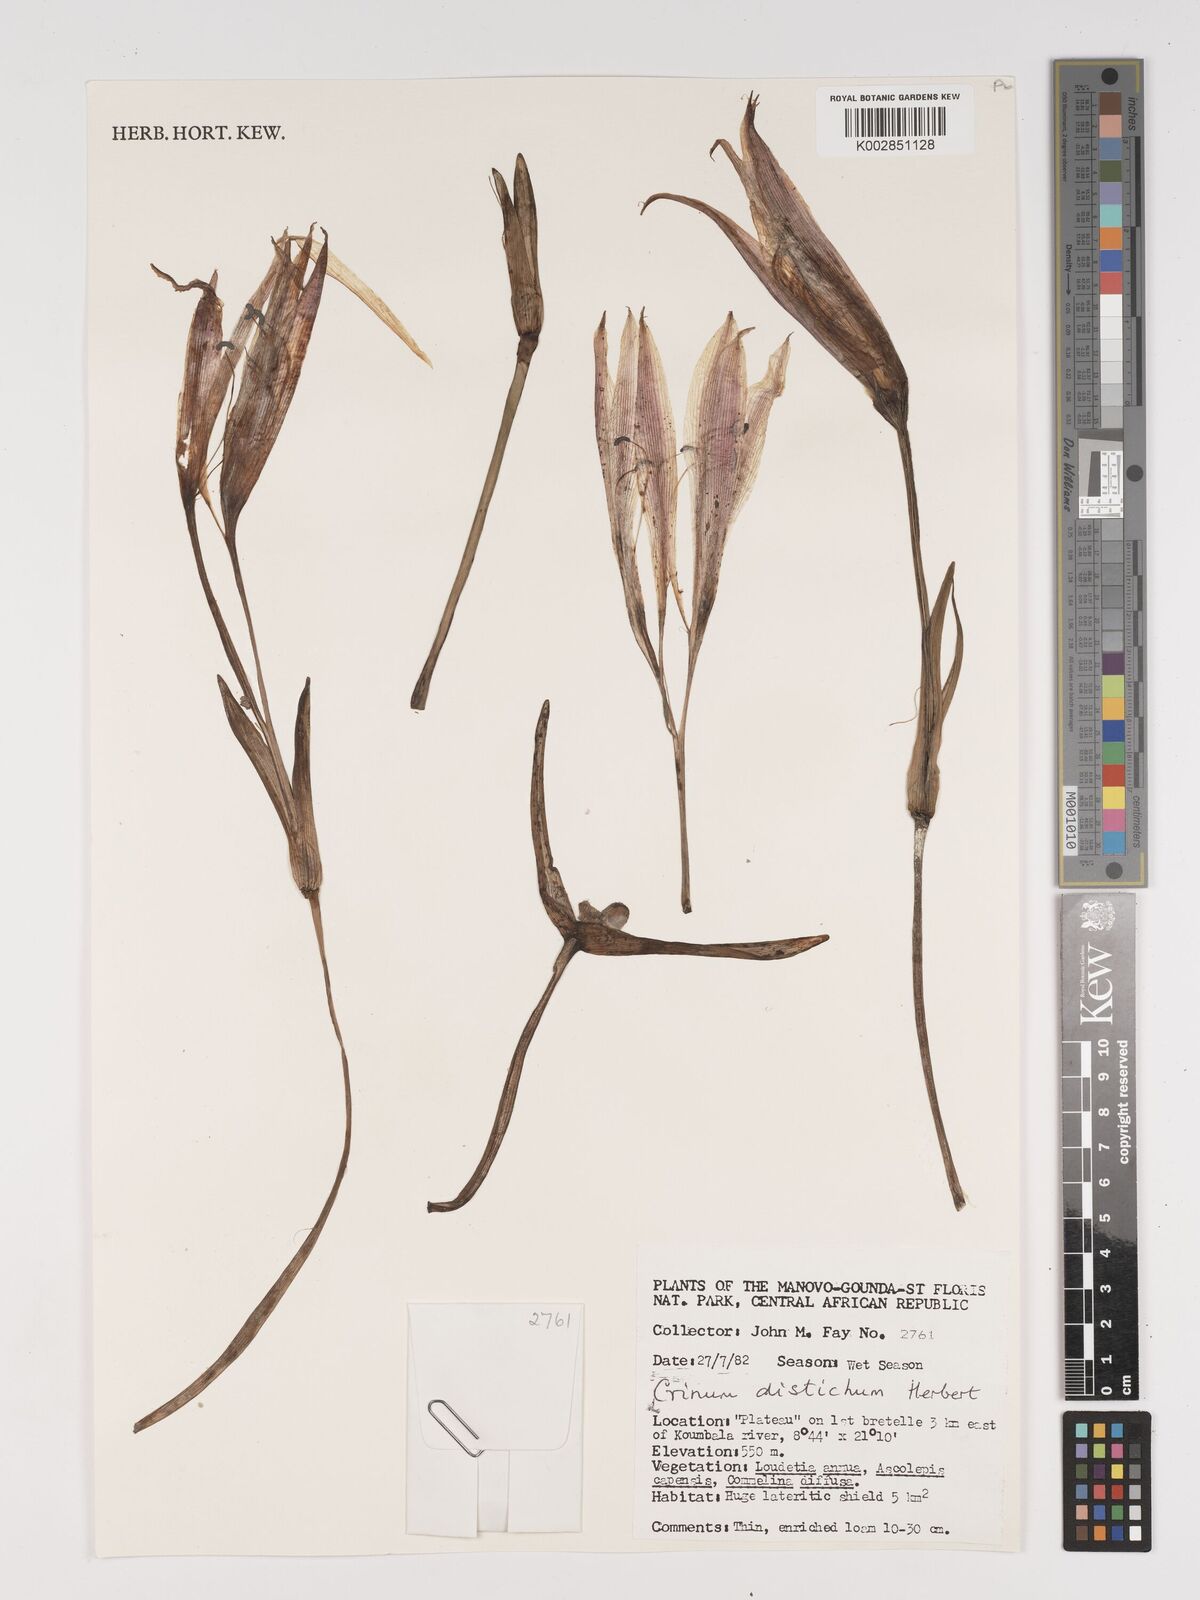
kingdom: Plantae
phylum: Tracheophyta
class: Liliopsida
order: Asparagales
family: Amaryllidaceae
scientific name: Amaryllidaceae
